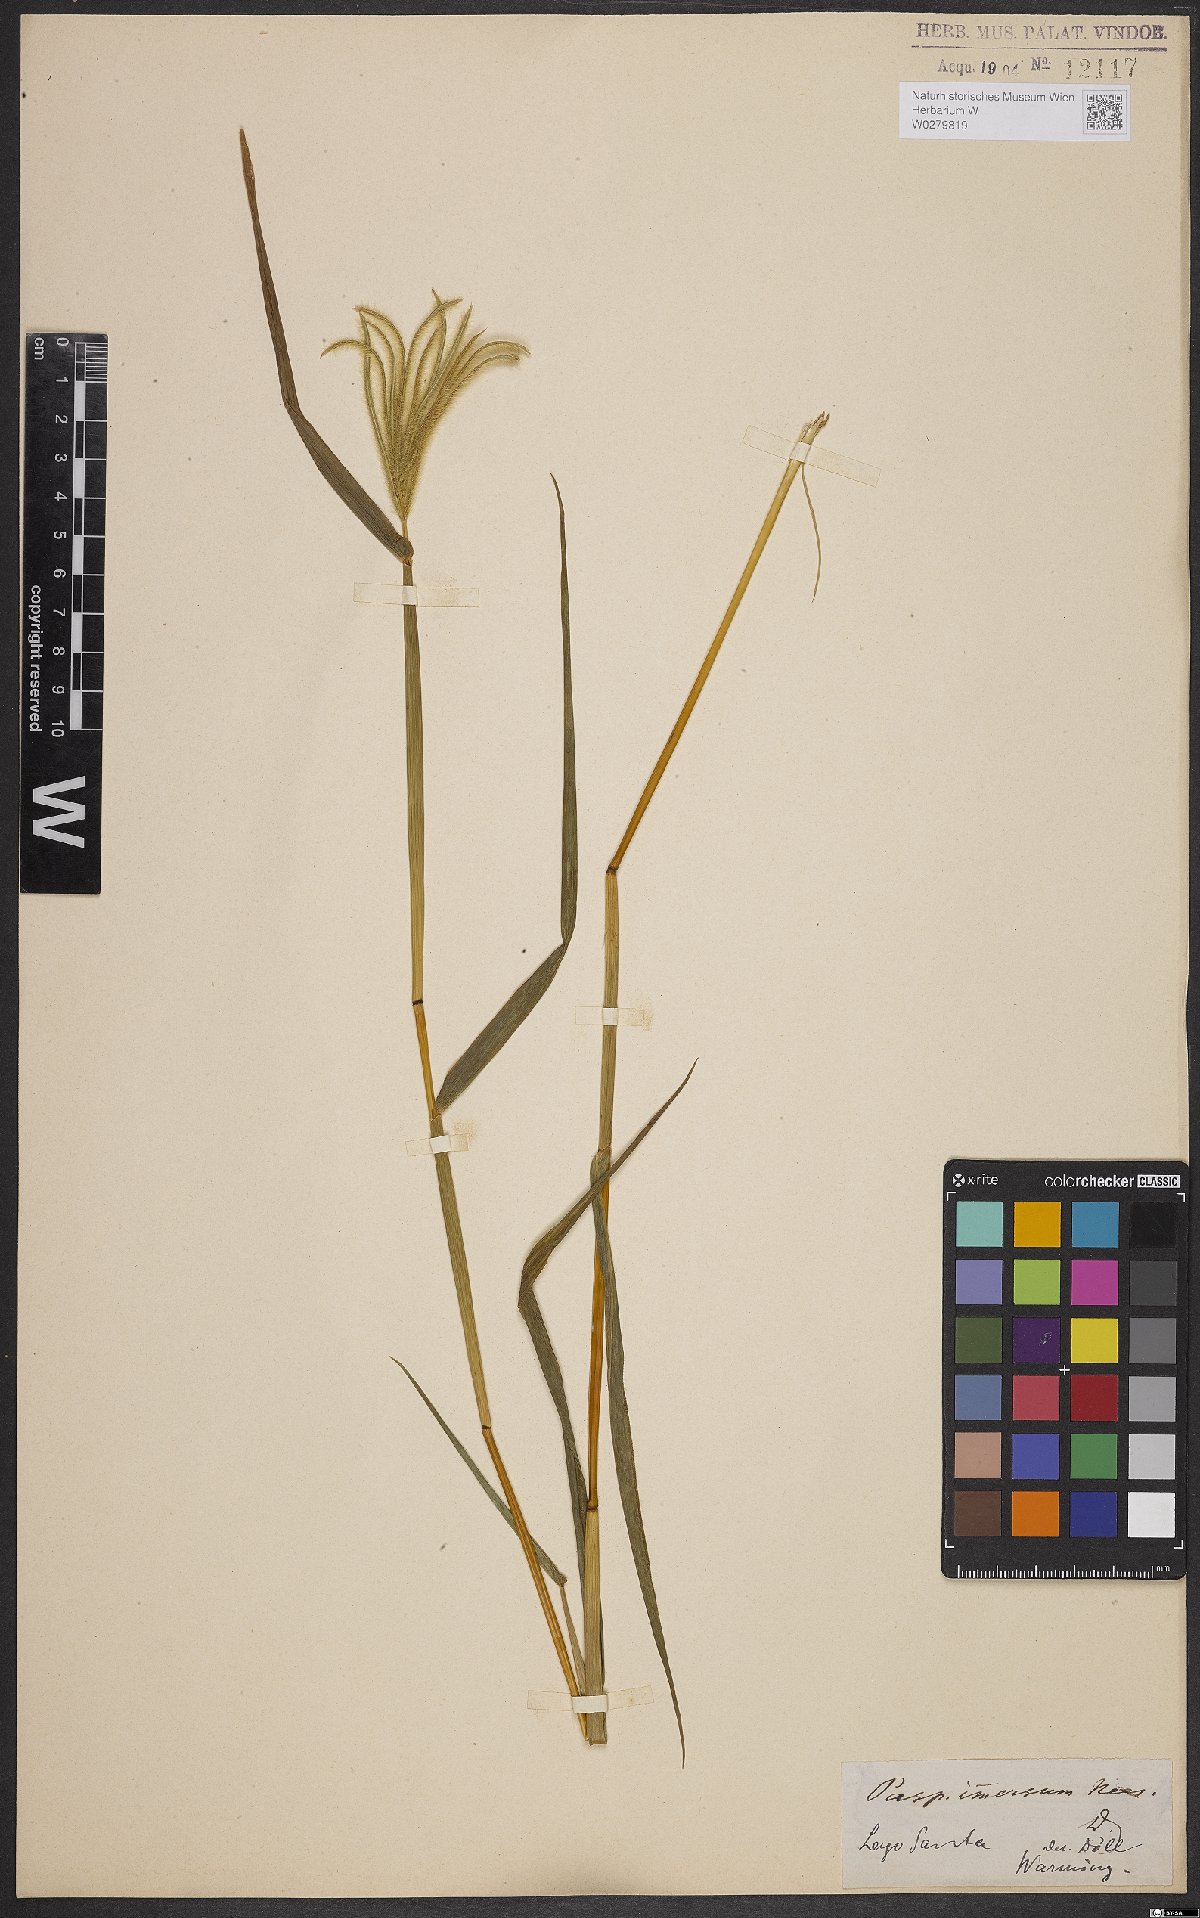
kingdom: Plantae
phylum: Tracheophyta
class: Liliopsida
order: Poales
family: Poaceae
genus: Axonopus
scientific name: Axonopus aureus
